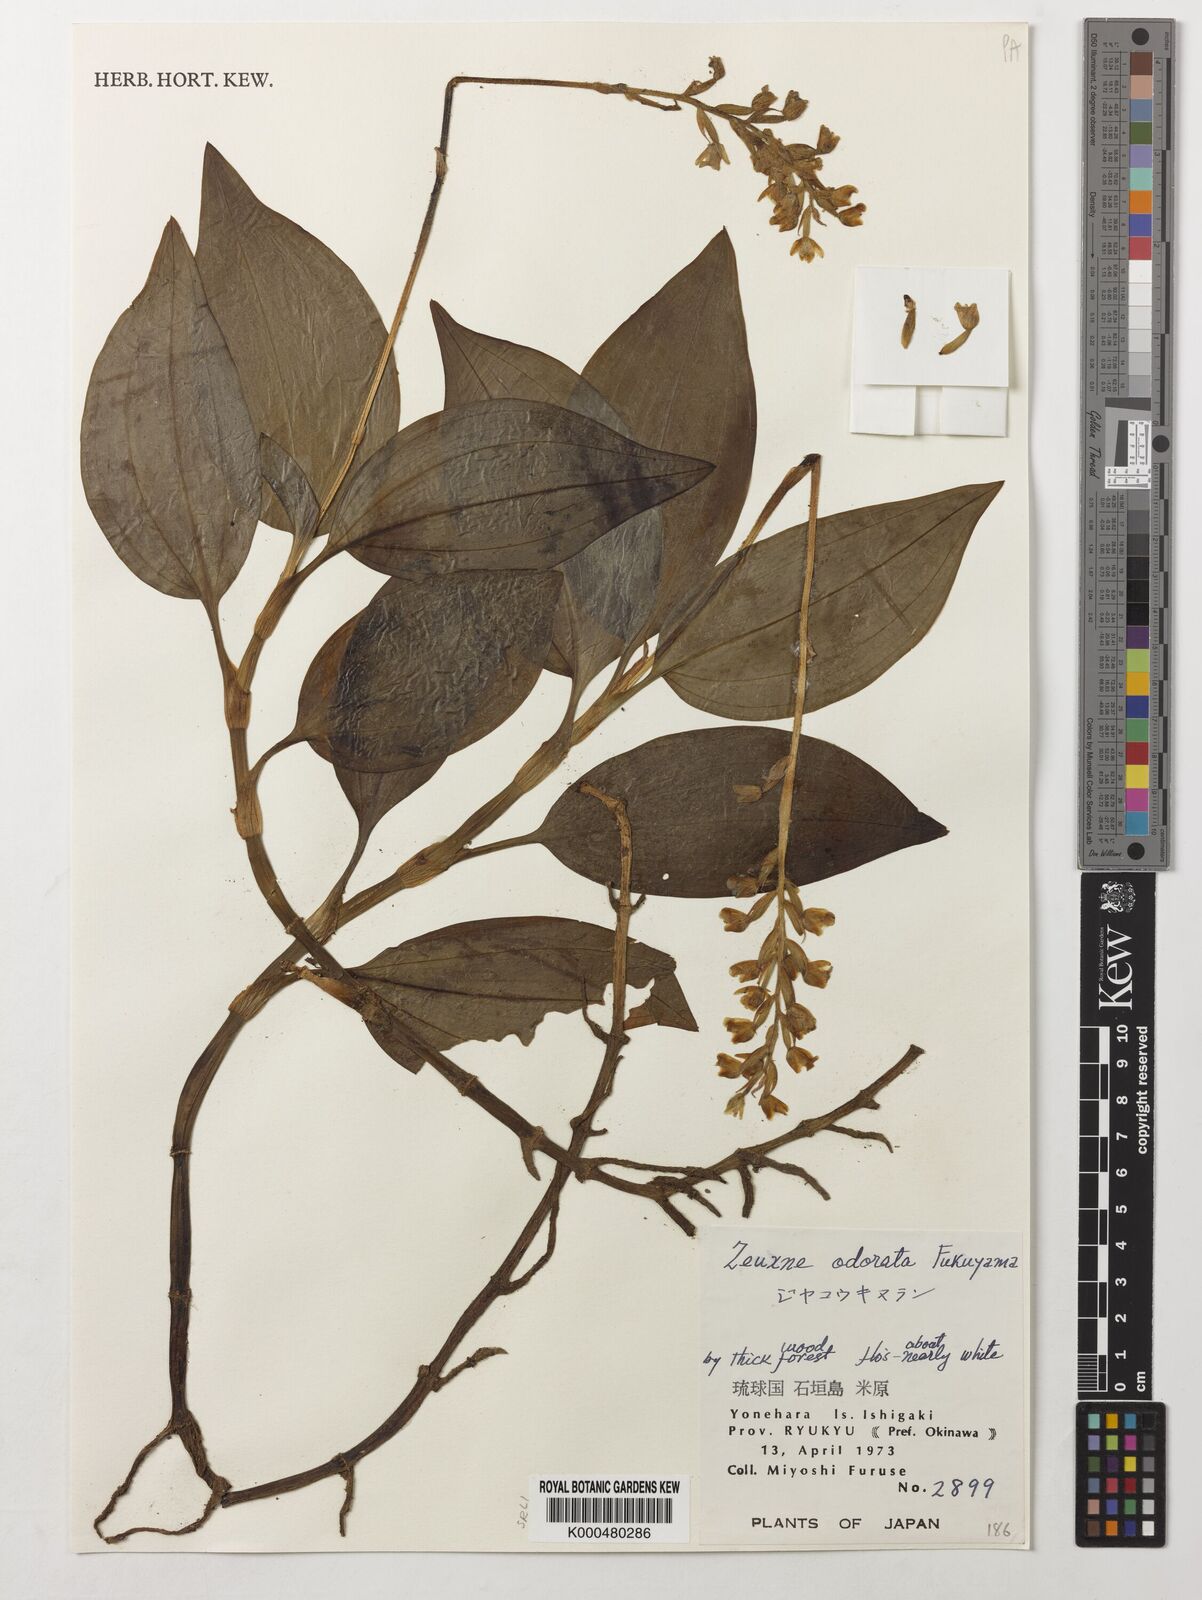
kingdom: Plantae
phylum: Tracheophyta
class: Liliopsida
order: Asparagales
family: Orchidaceae
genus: Zeuxine
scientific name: Zeuxine odorata
